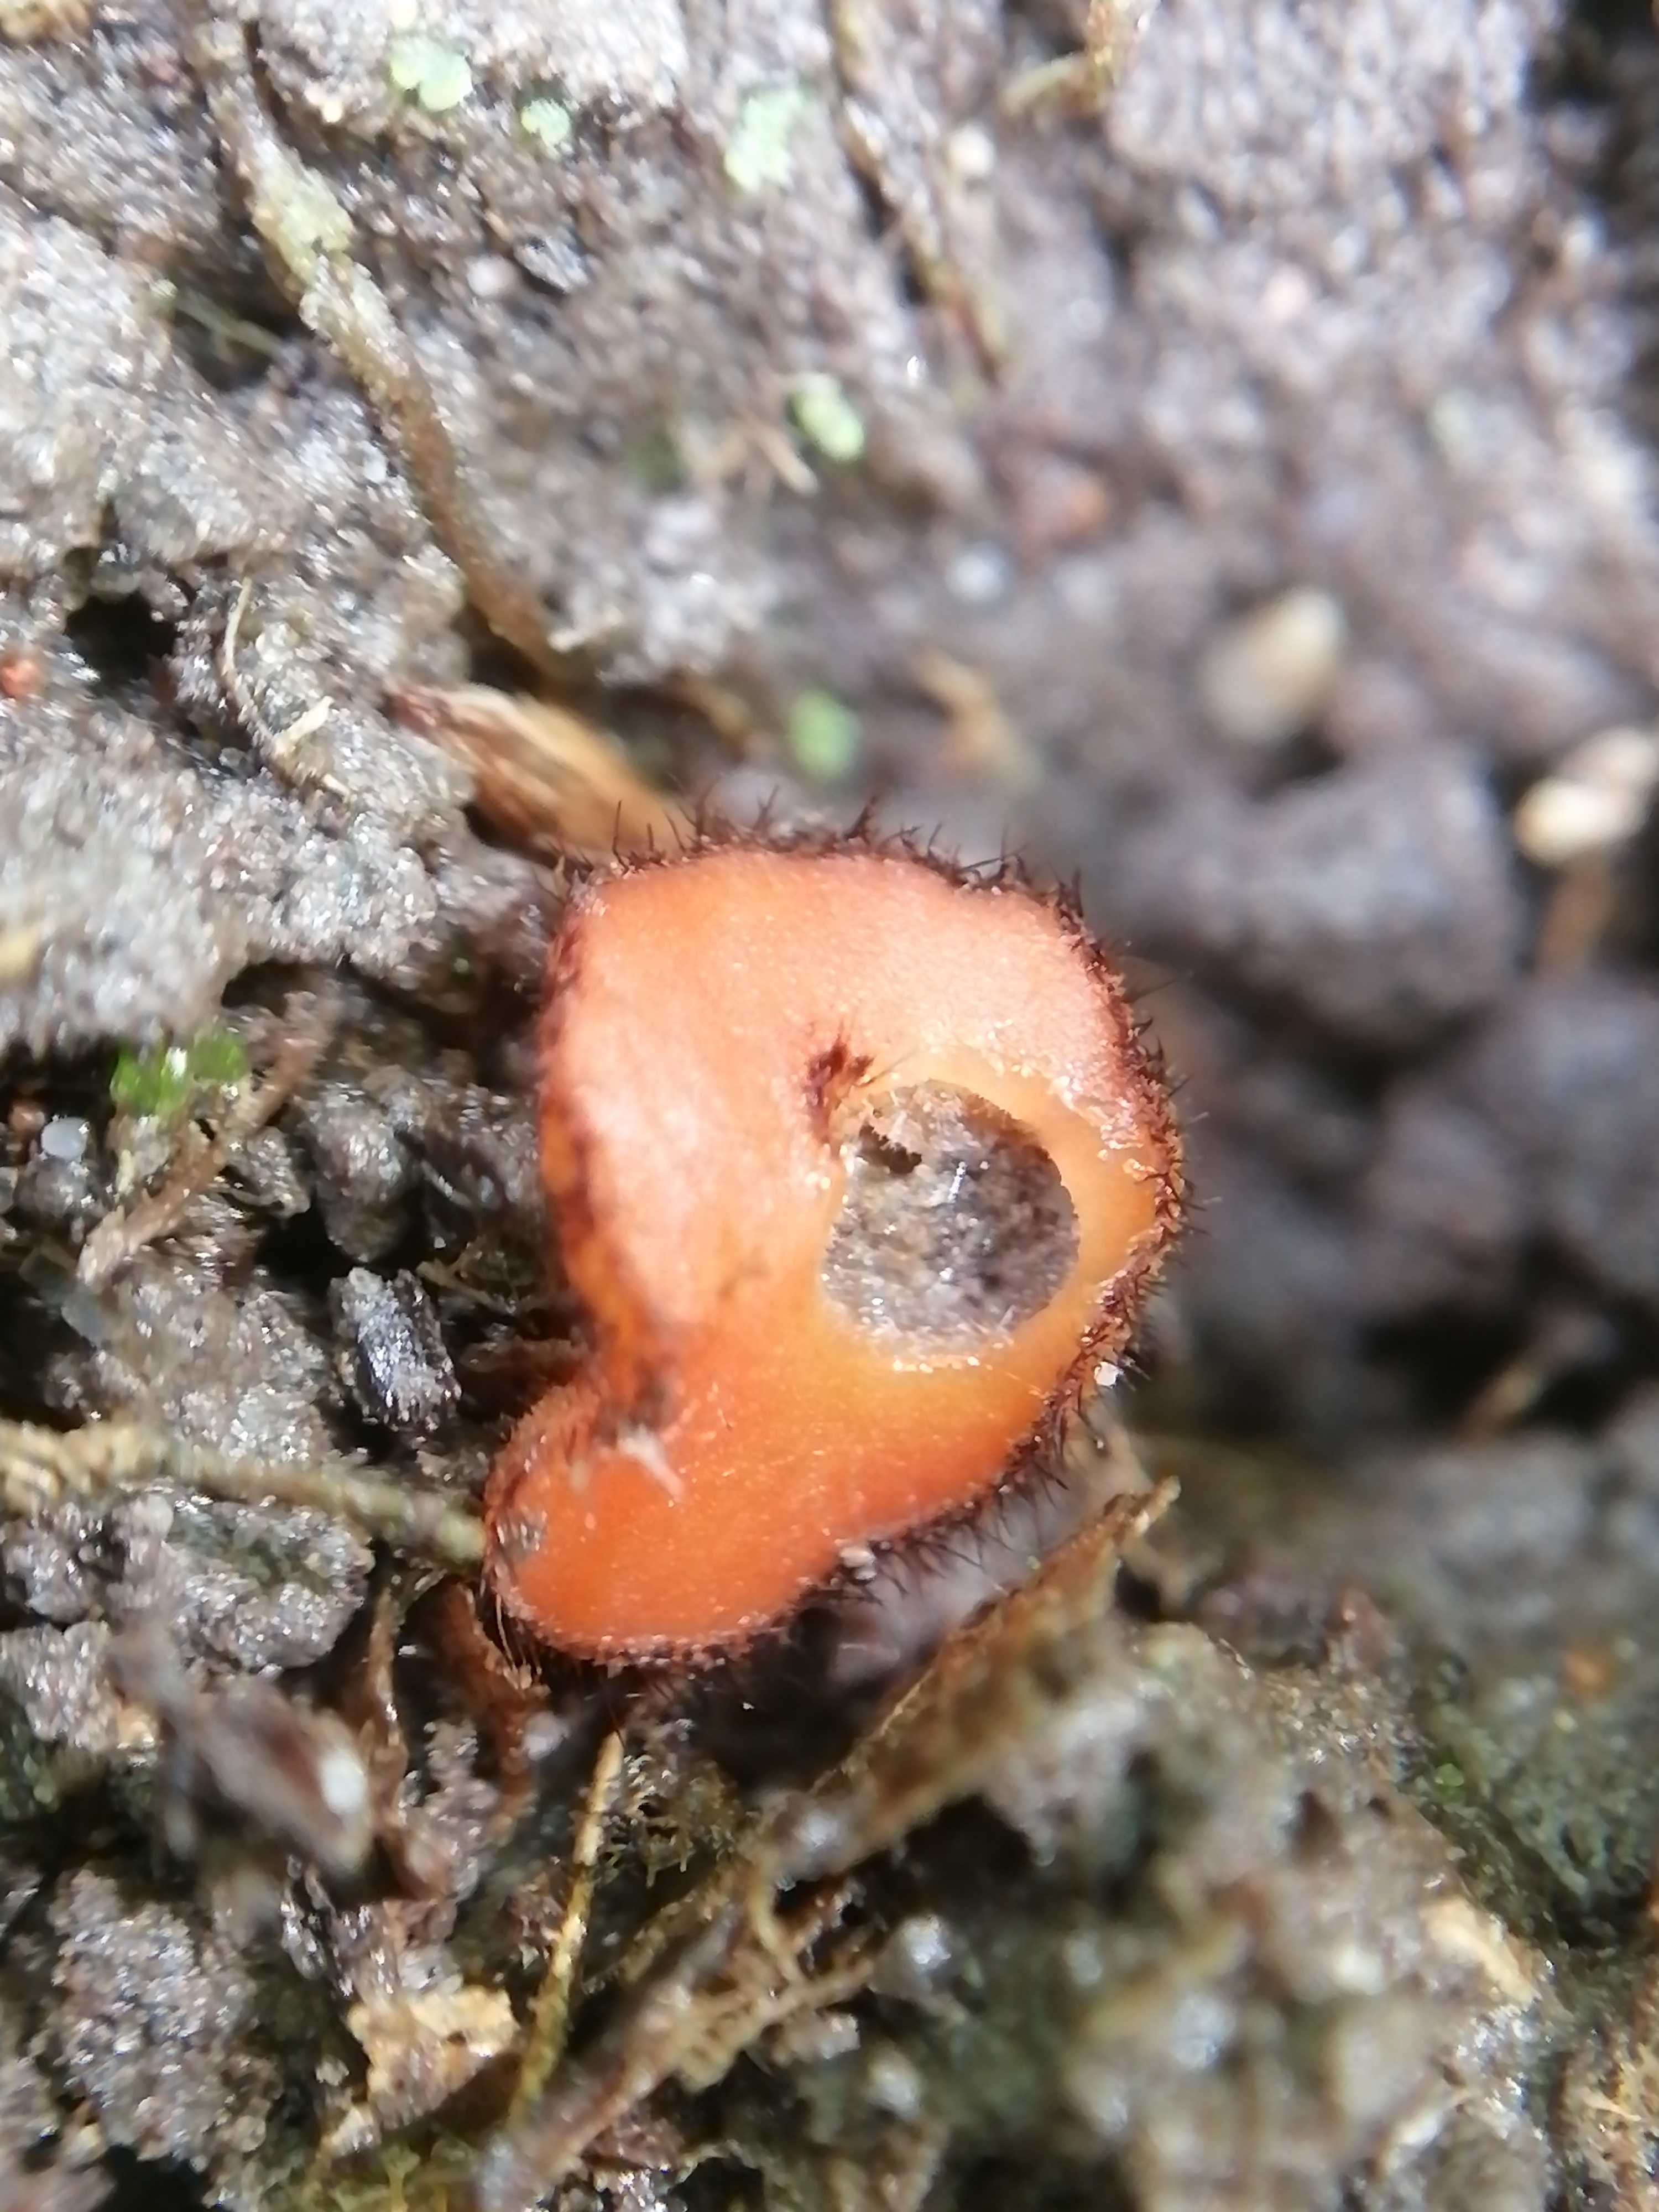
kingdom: Fungi
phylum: Ascomycota
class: Pezizomycetes
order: Pezizales
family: Pyronemataceae
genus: Scutellinia
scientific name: Scutellinia
